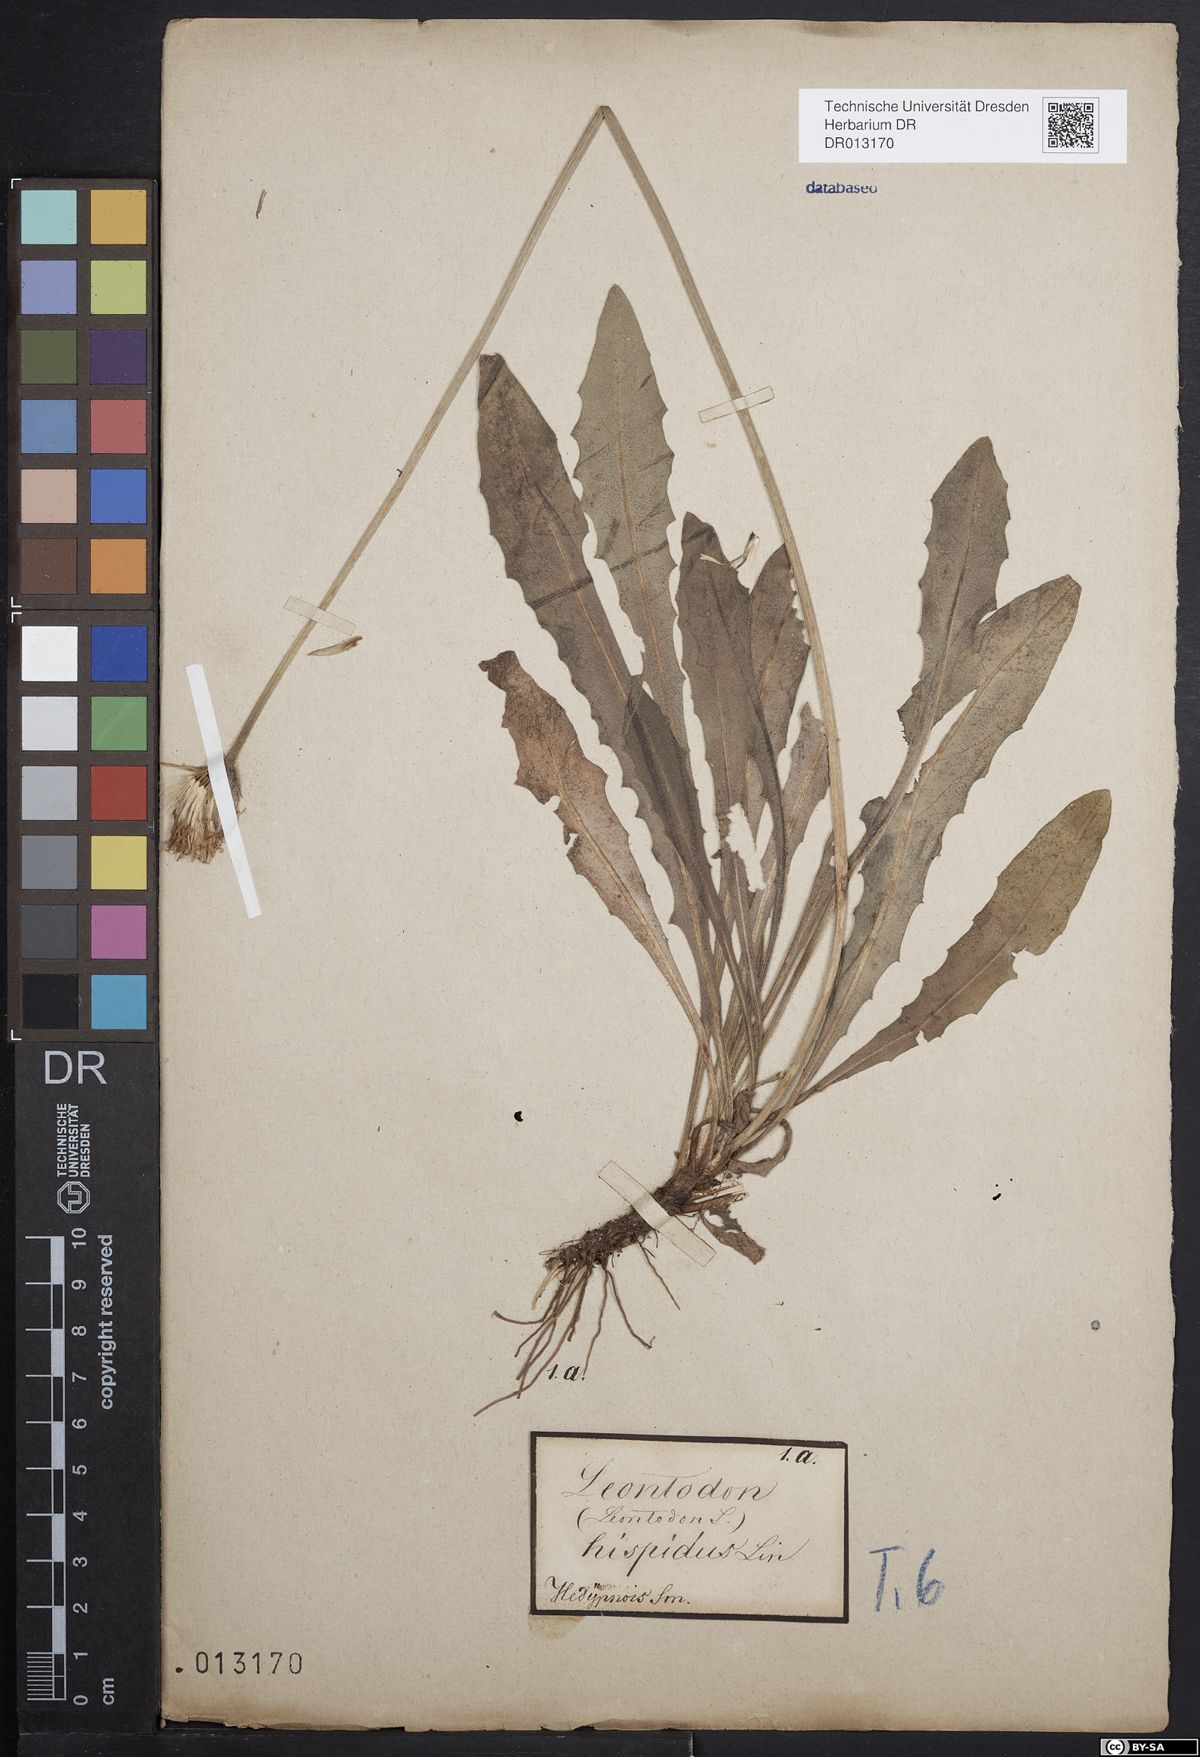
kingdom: Plantae
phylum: Tracheophyta
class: Magnoliopsida
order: Asterales
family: Asteraceae
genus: Leontodon
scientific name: Leontodon hispidus
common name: Rough hawkbit
